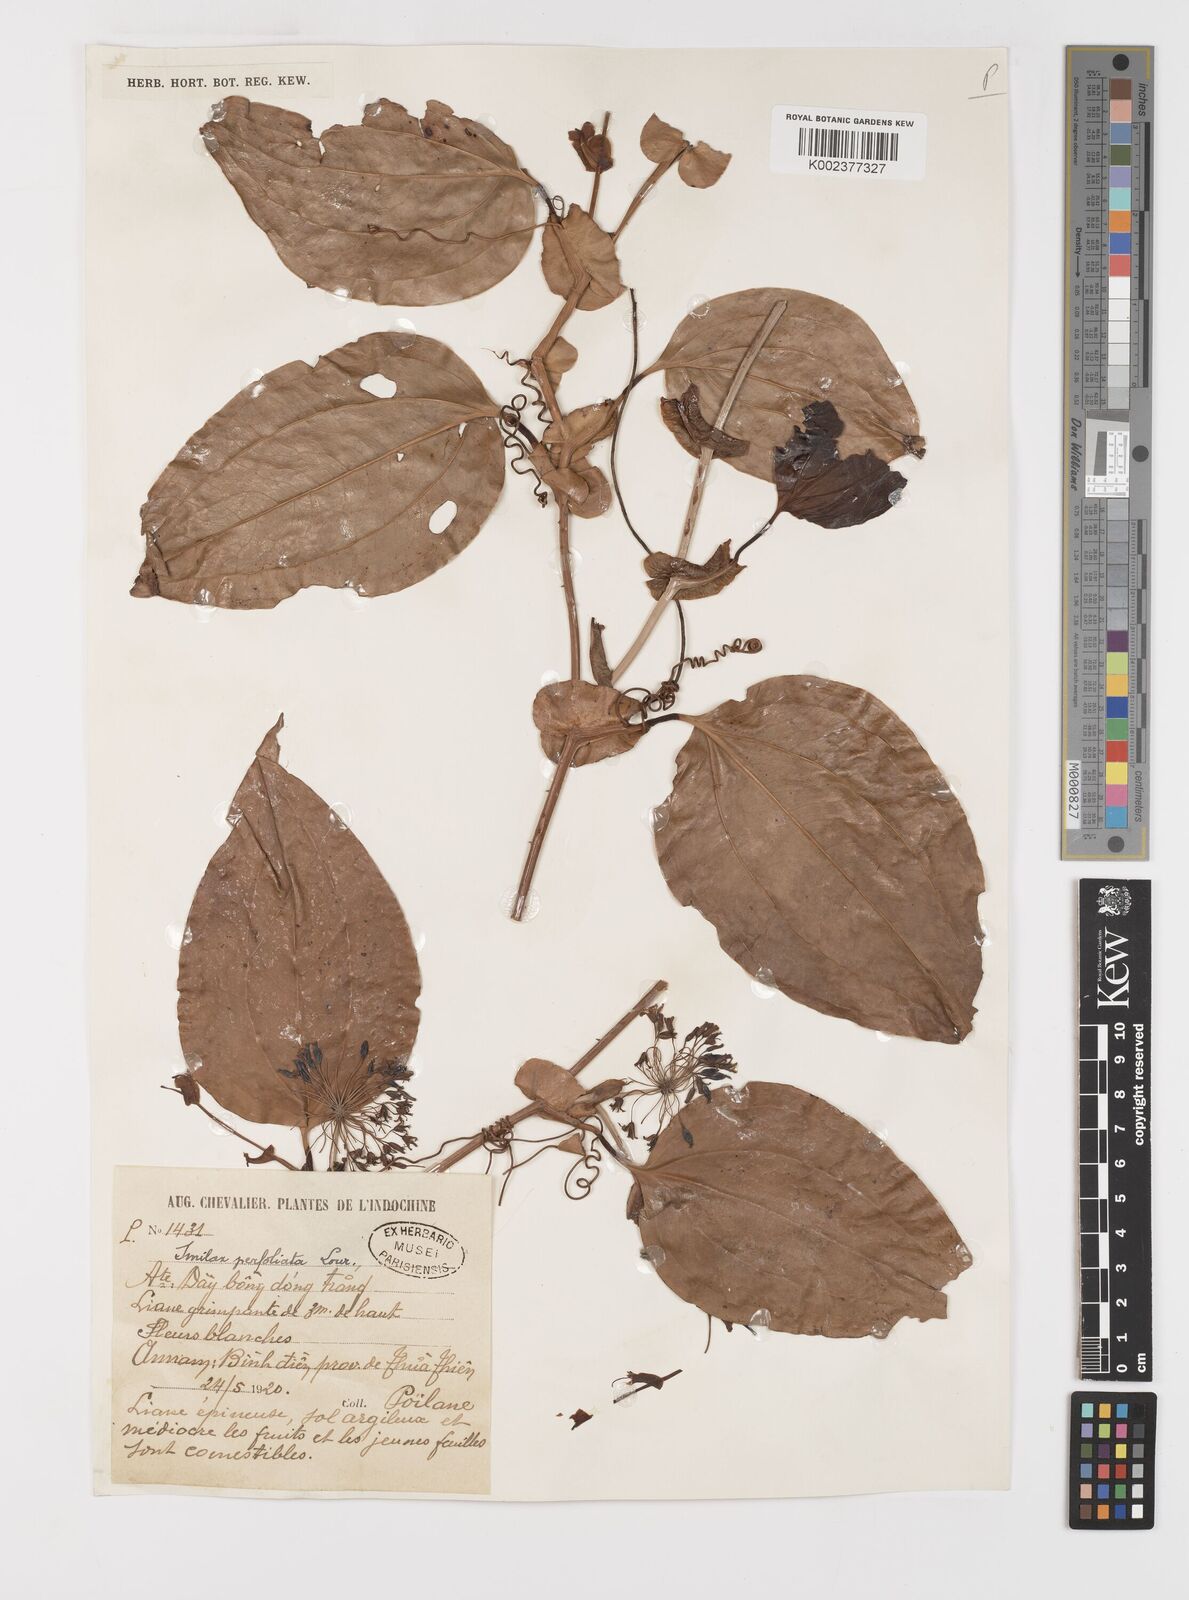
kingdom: Plantae
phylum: Tracheophyta
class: Liliopsida
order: Liliales
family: Smilacaceae
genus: Smilax
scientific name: Smilax perfoliata
